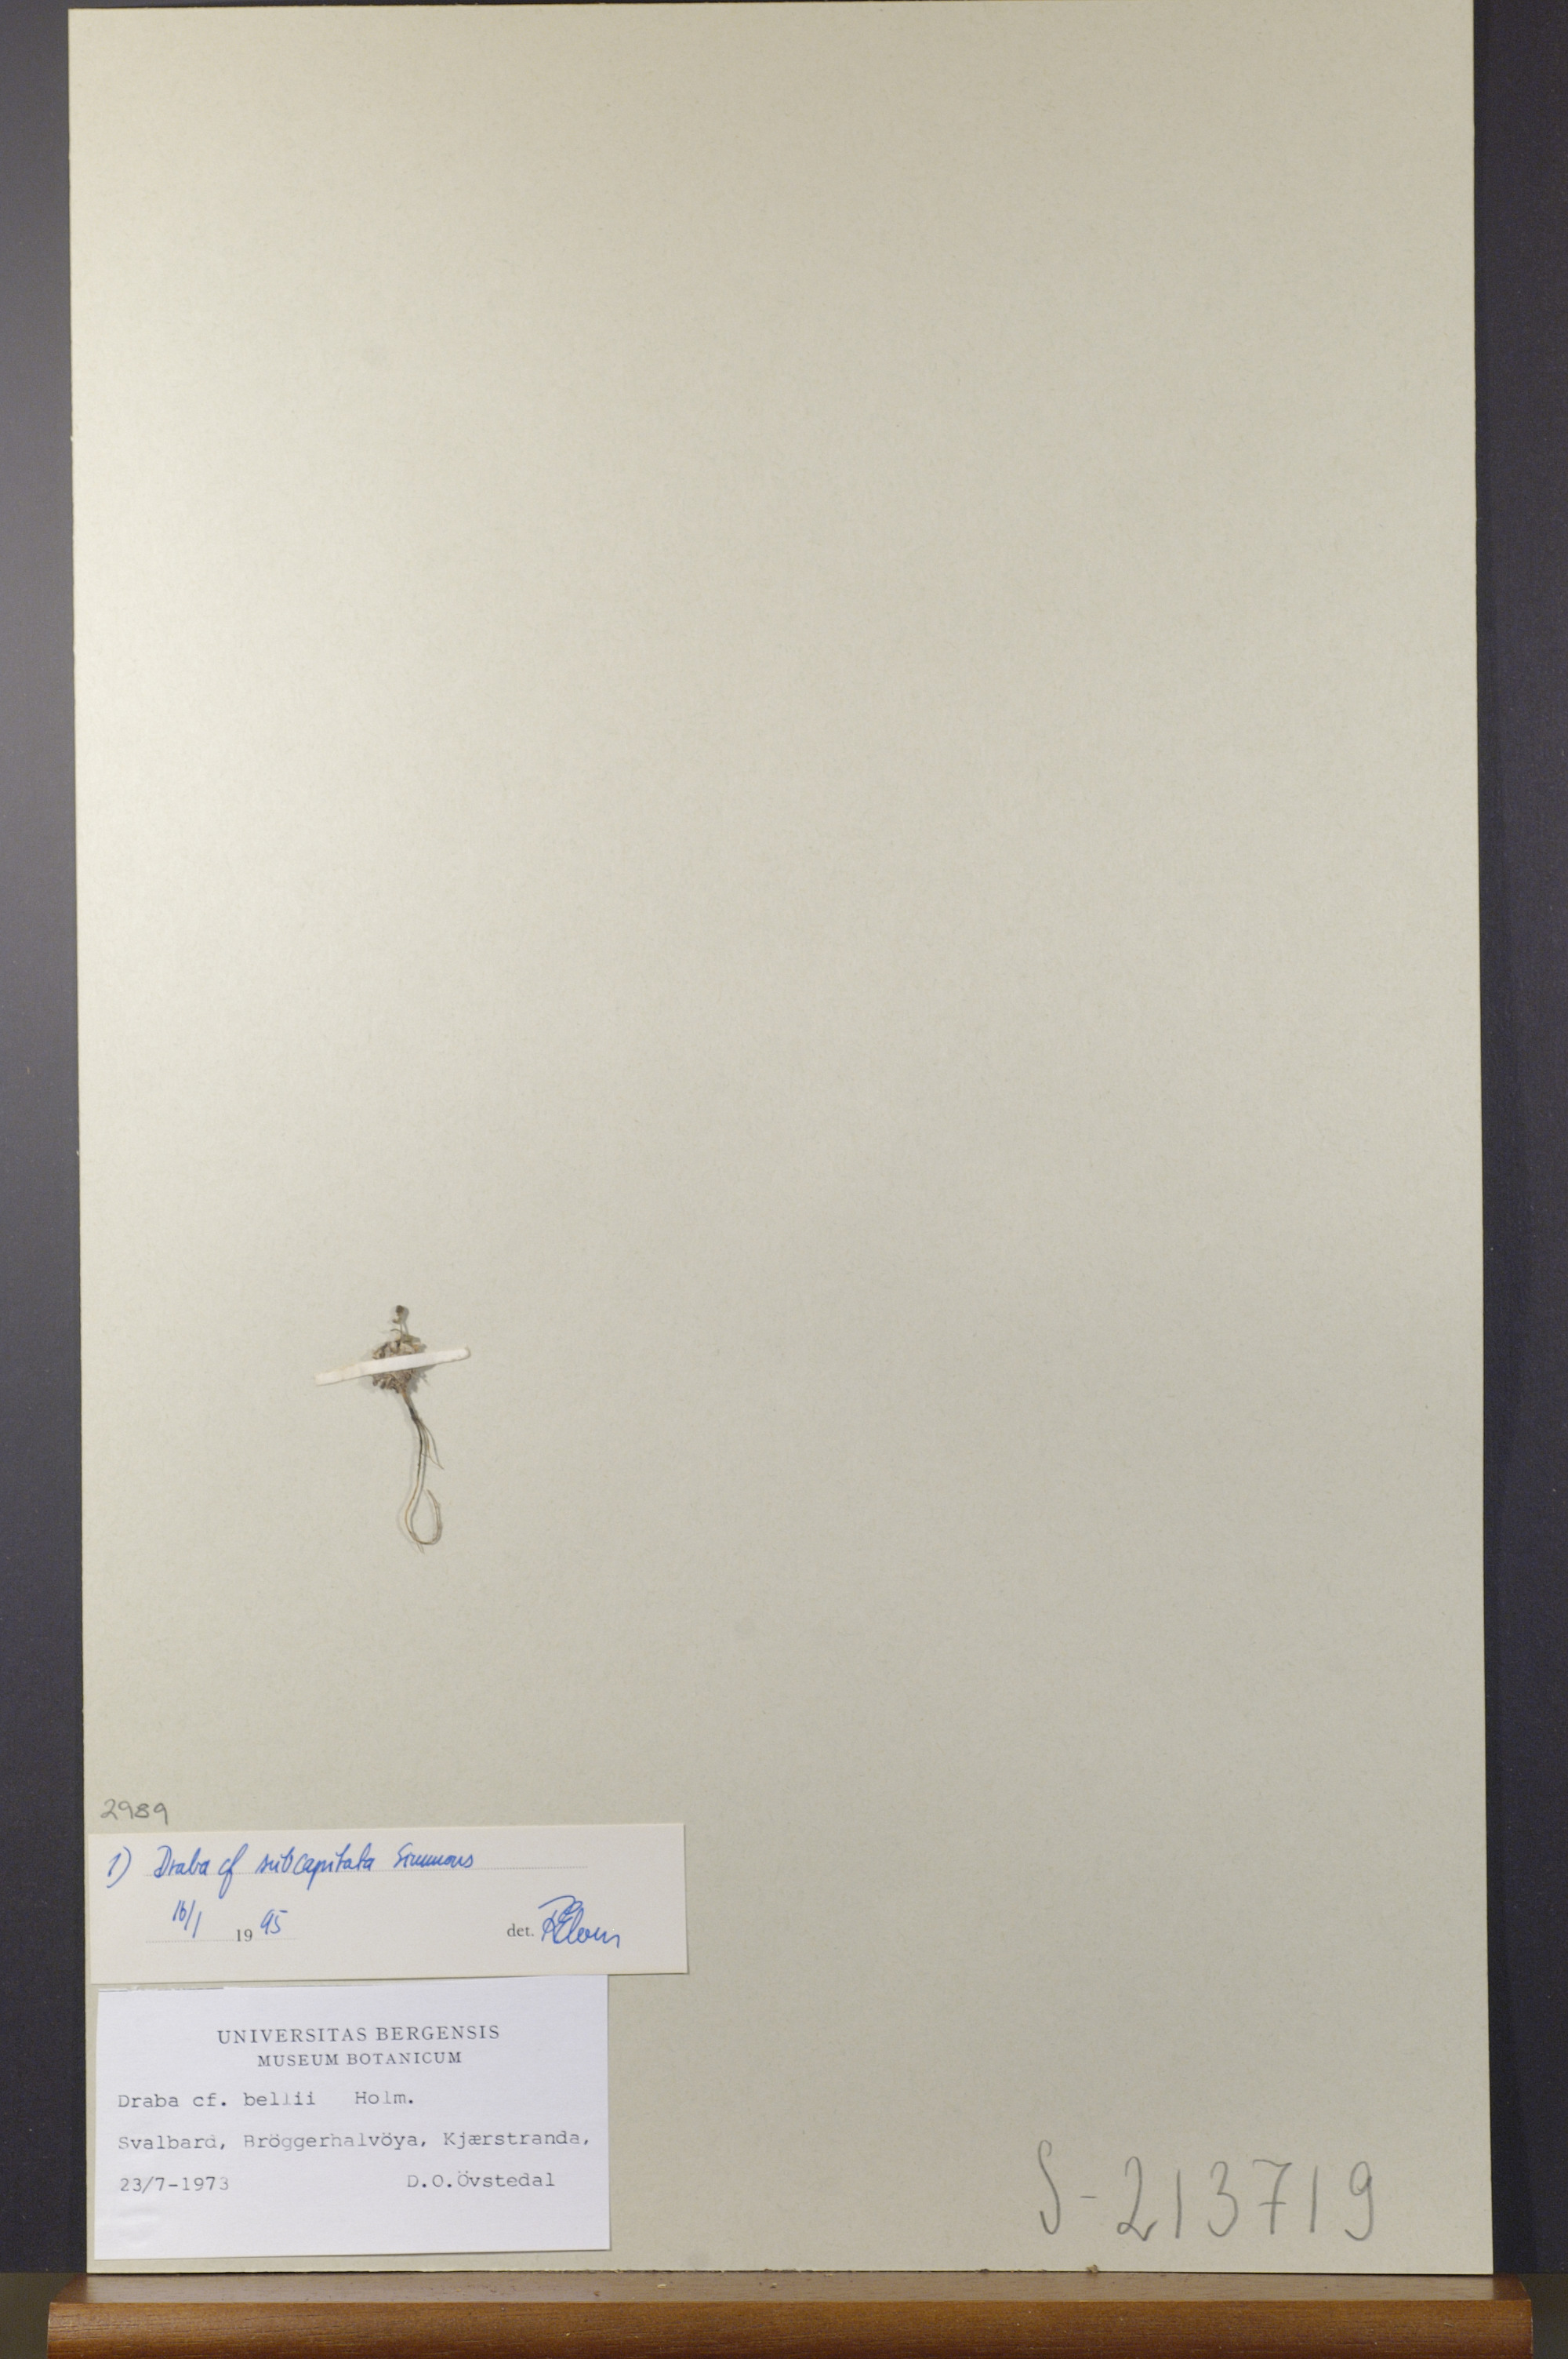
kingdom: Plantae
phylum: Tracheophyta
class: Magnoliopsida
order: Brassicales
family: Brassicaceae
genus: Draba
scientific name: Draba subcapitata
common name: Ellesmere island draba
